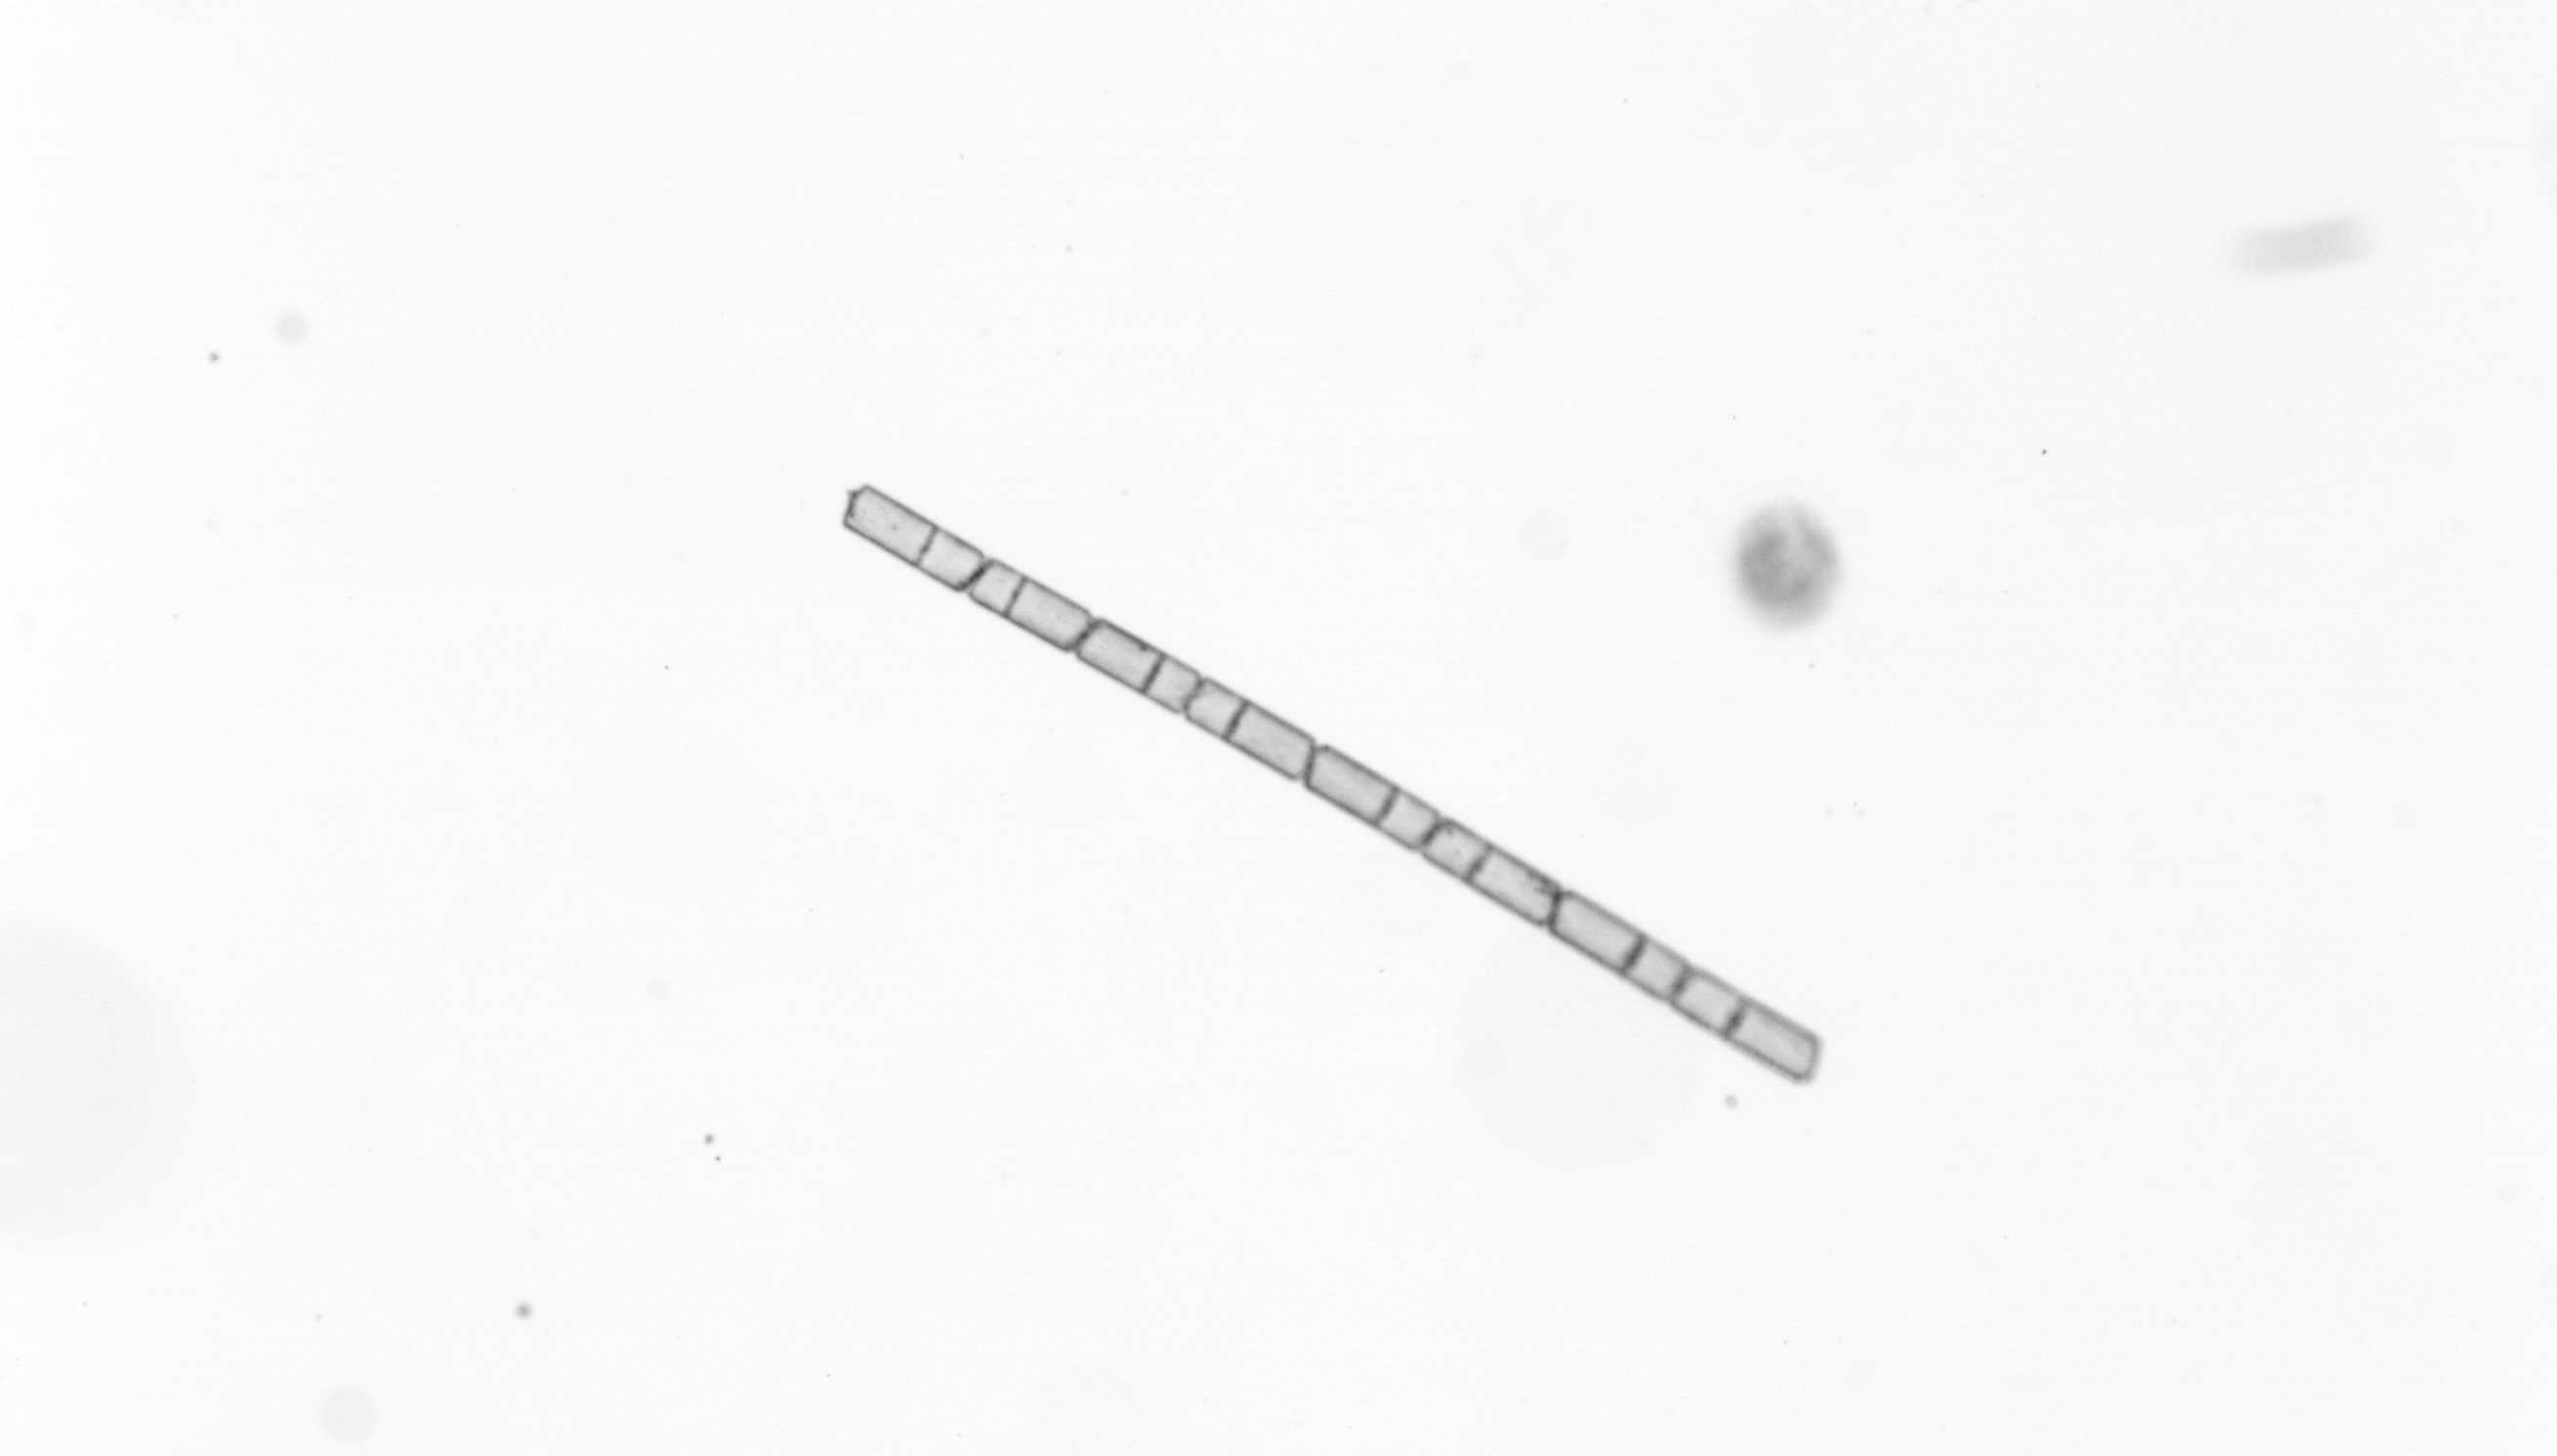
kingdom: Chromista
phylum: Ochrophyta
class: Bacillariophyceae
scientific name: Bacillariophyceae
